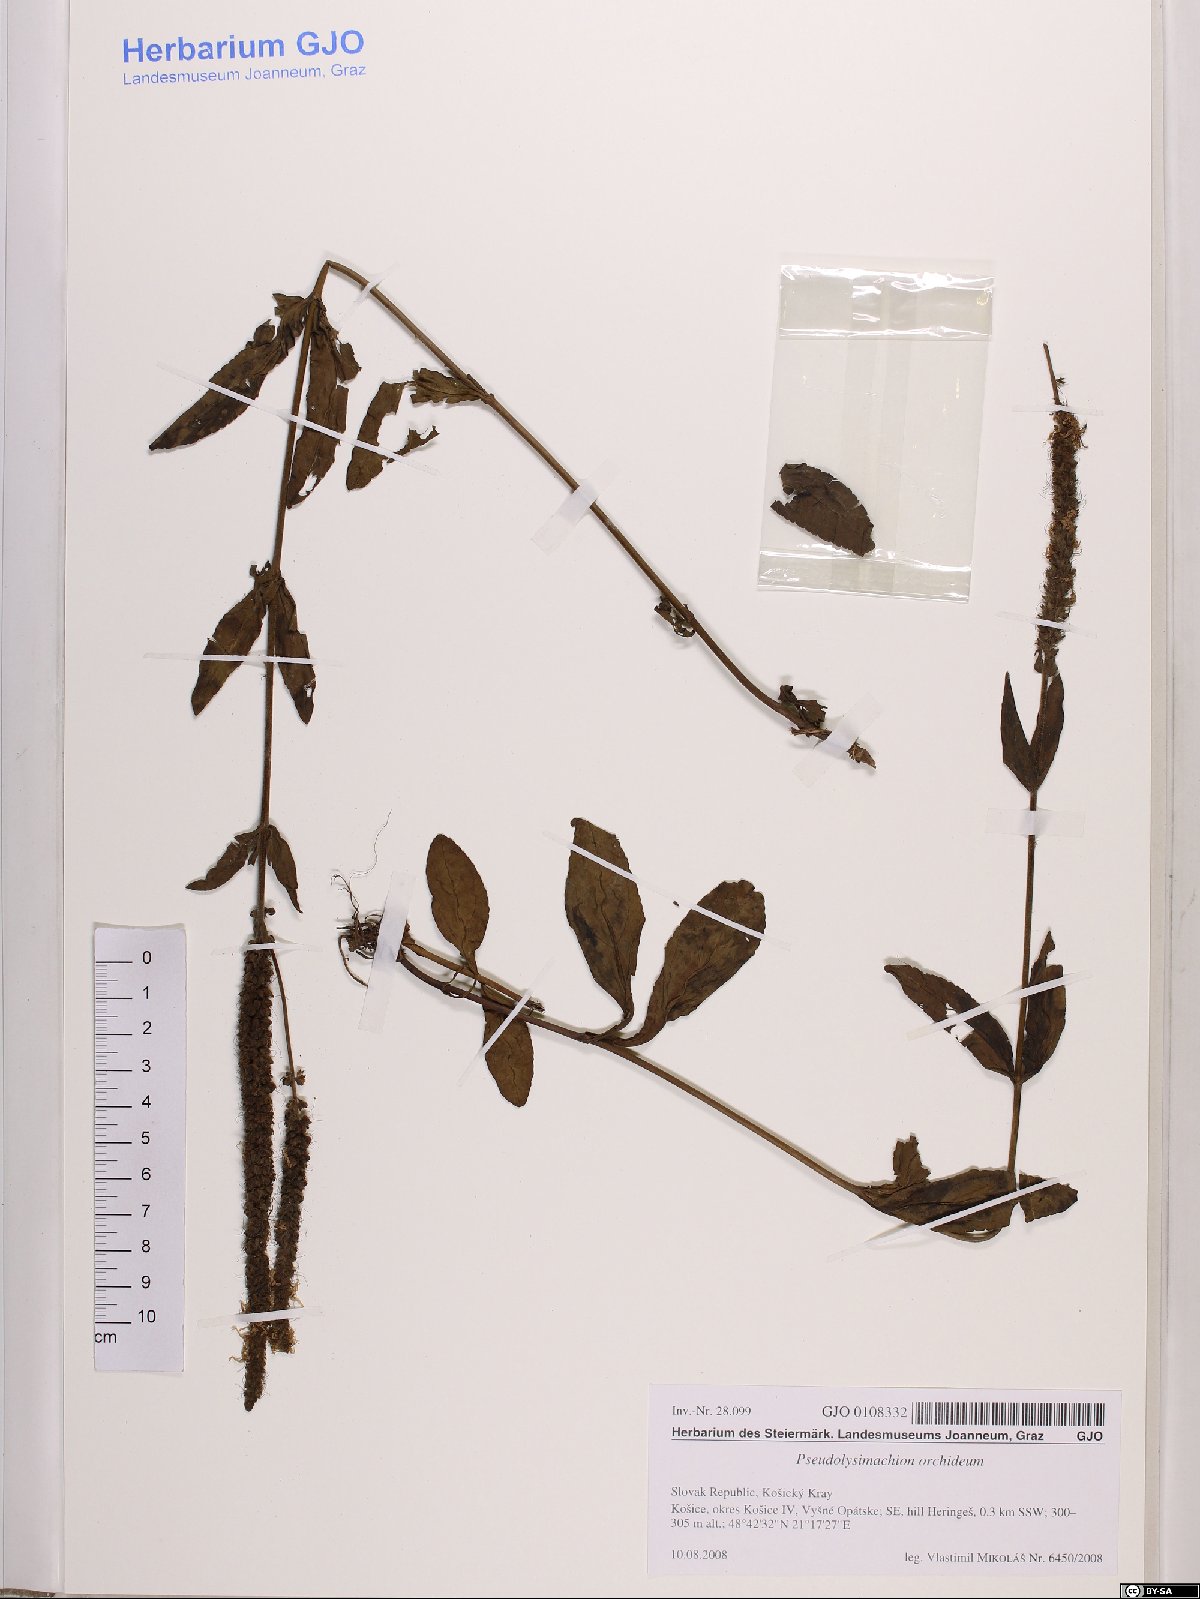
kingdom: Plantae
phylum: Tracheophyta
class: Magnoliopsida
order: Lamiales
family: Plantaginaceae
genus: Veronica
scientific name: Veronica orchidea
